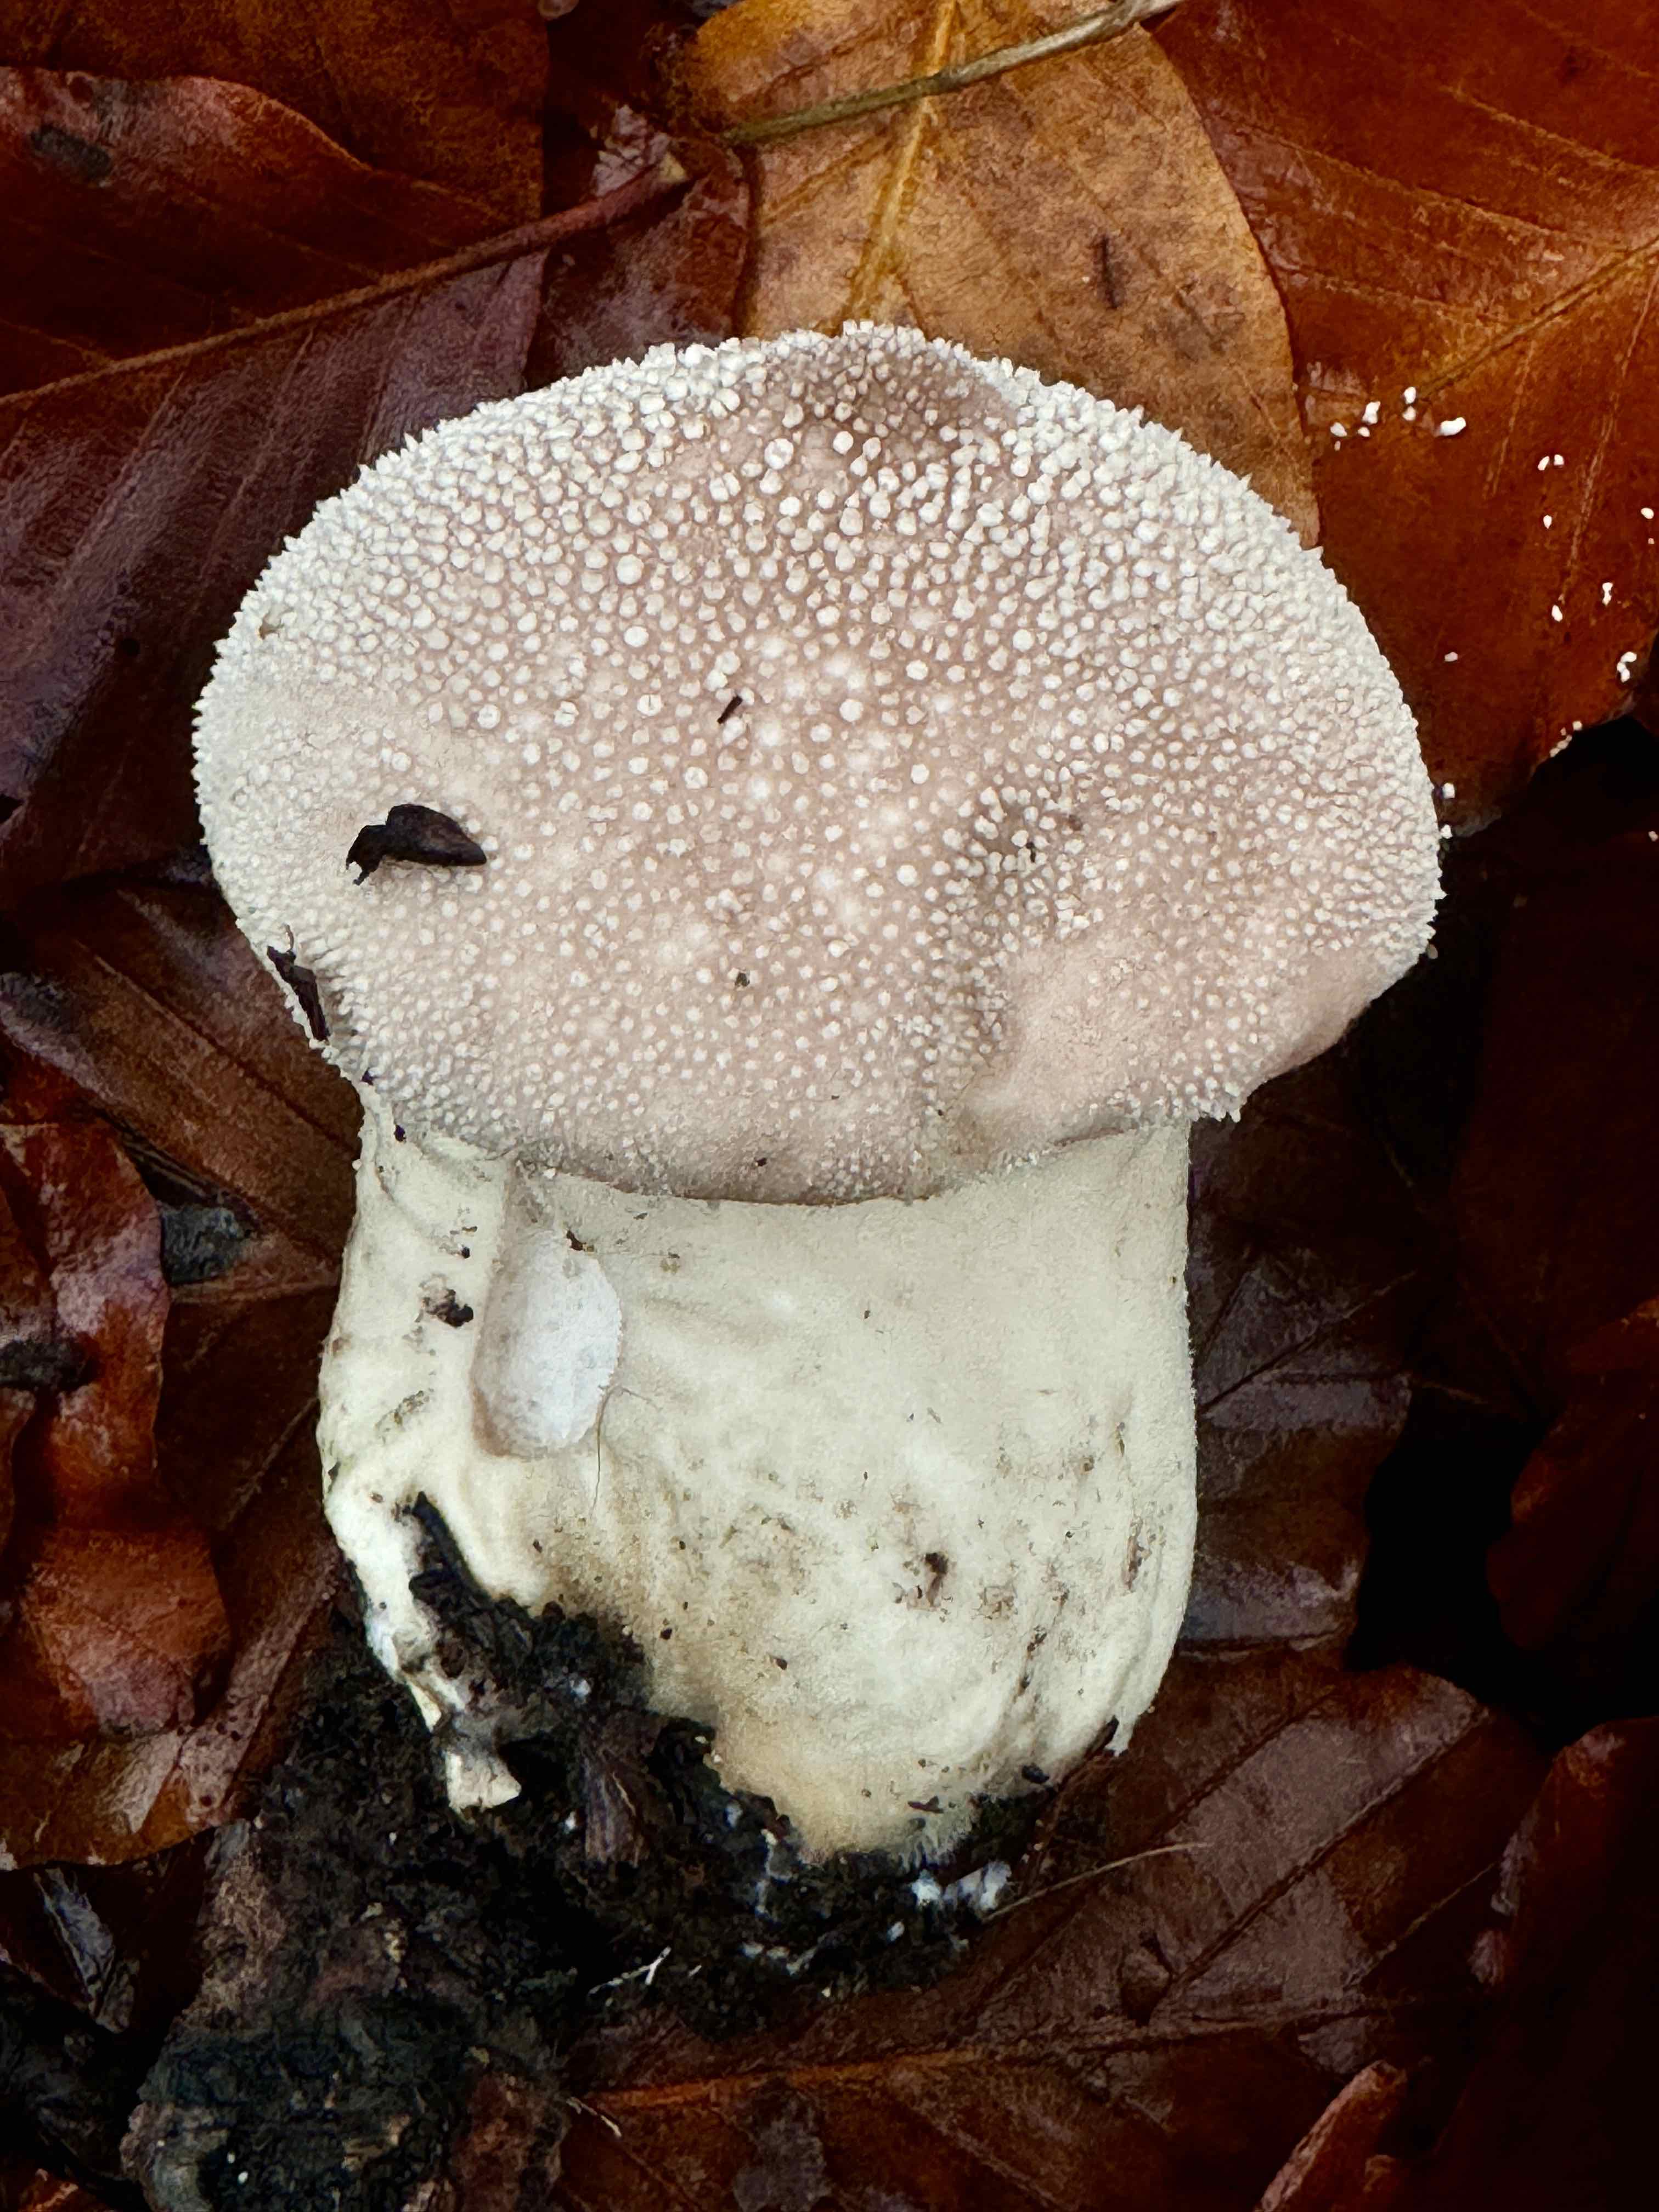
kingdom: Fungi
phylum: Basidiomycota
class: Agaricomycetes
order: Agaricales
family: Lycoperdaceae
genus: Lycoperdon
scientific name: Lycoperdon perlatum
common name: krystal-støvbold
